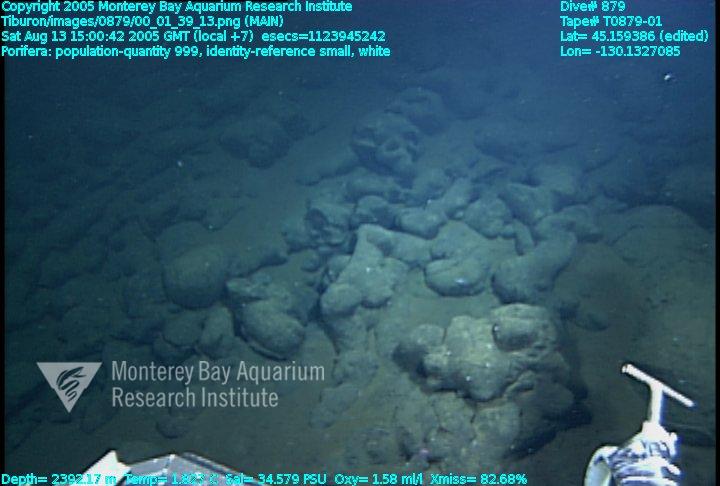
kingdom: Animalia
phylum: Porifera
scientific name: Porifera
